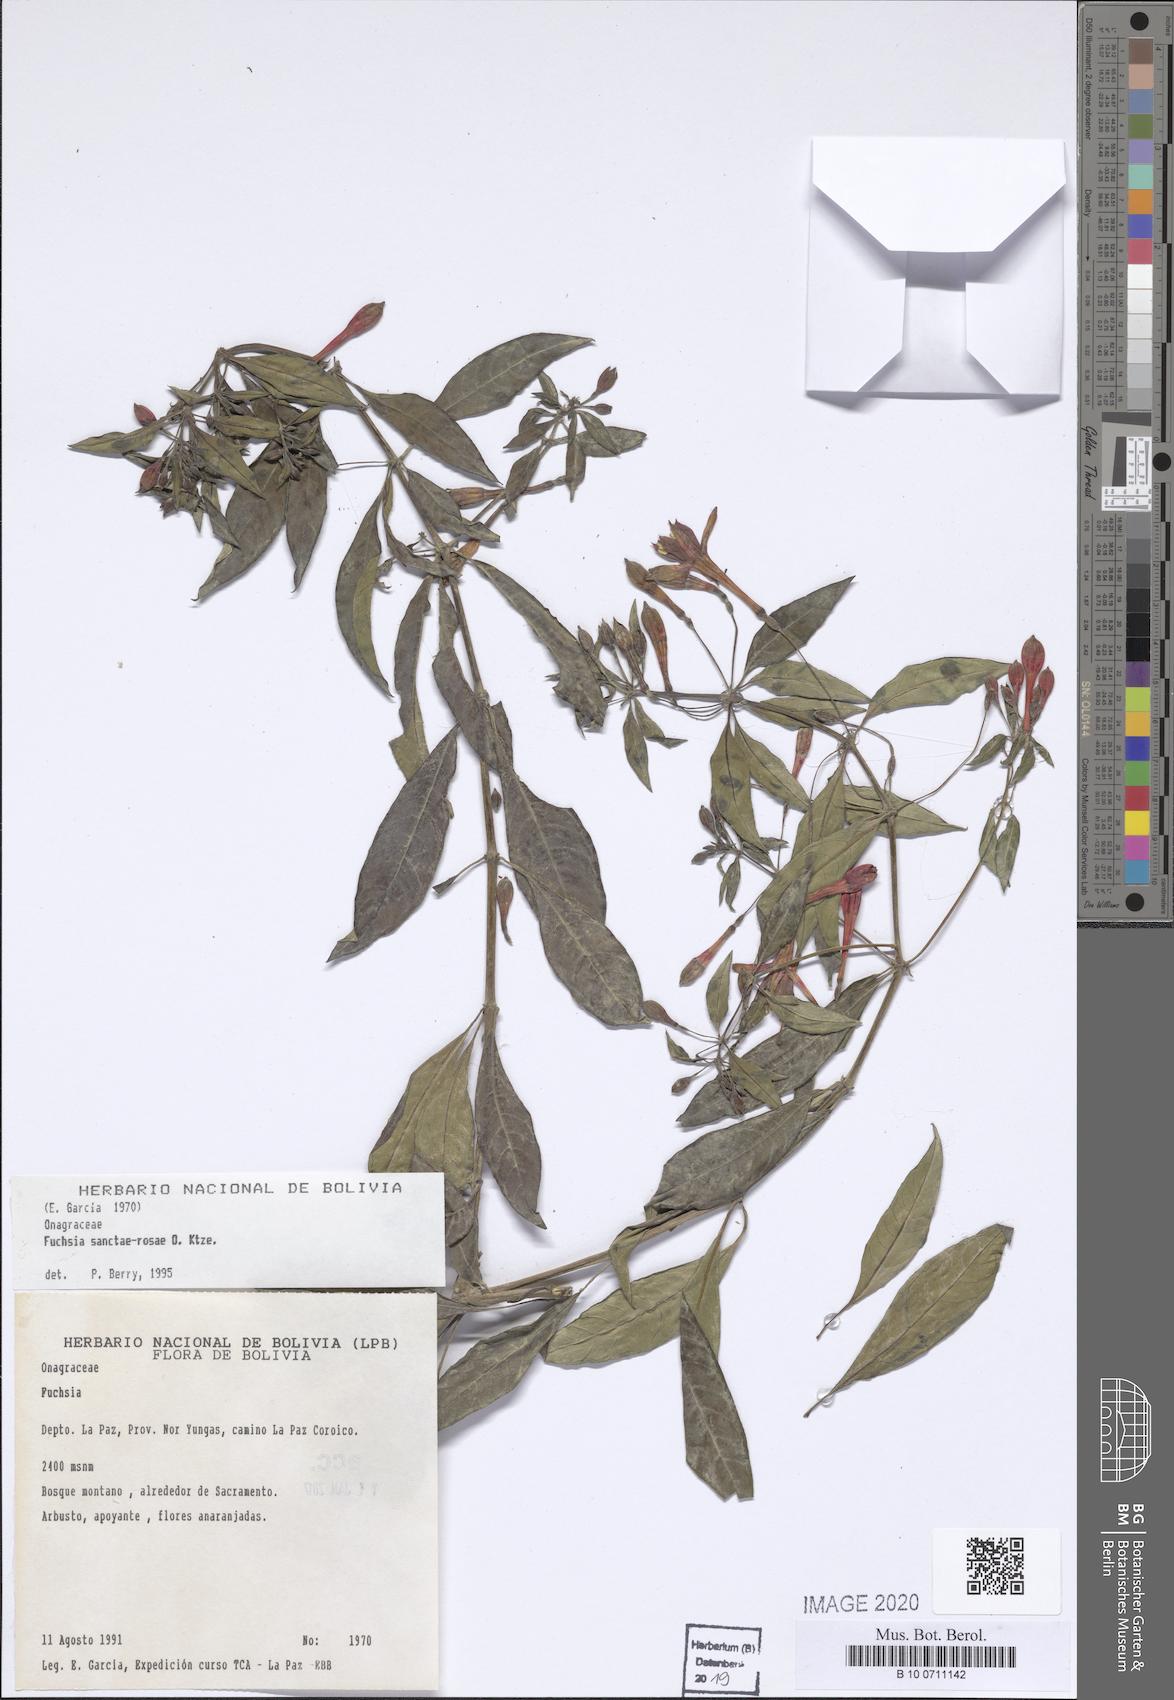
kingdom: Plantae
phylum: Tracheophyta
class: Magnoliopsida
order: Myrtales
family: Onagraceae
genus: Fuchsia
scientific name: Fuchsia sanctae-rosae
